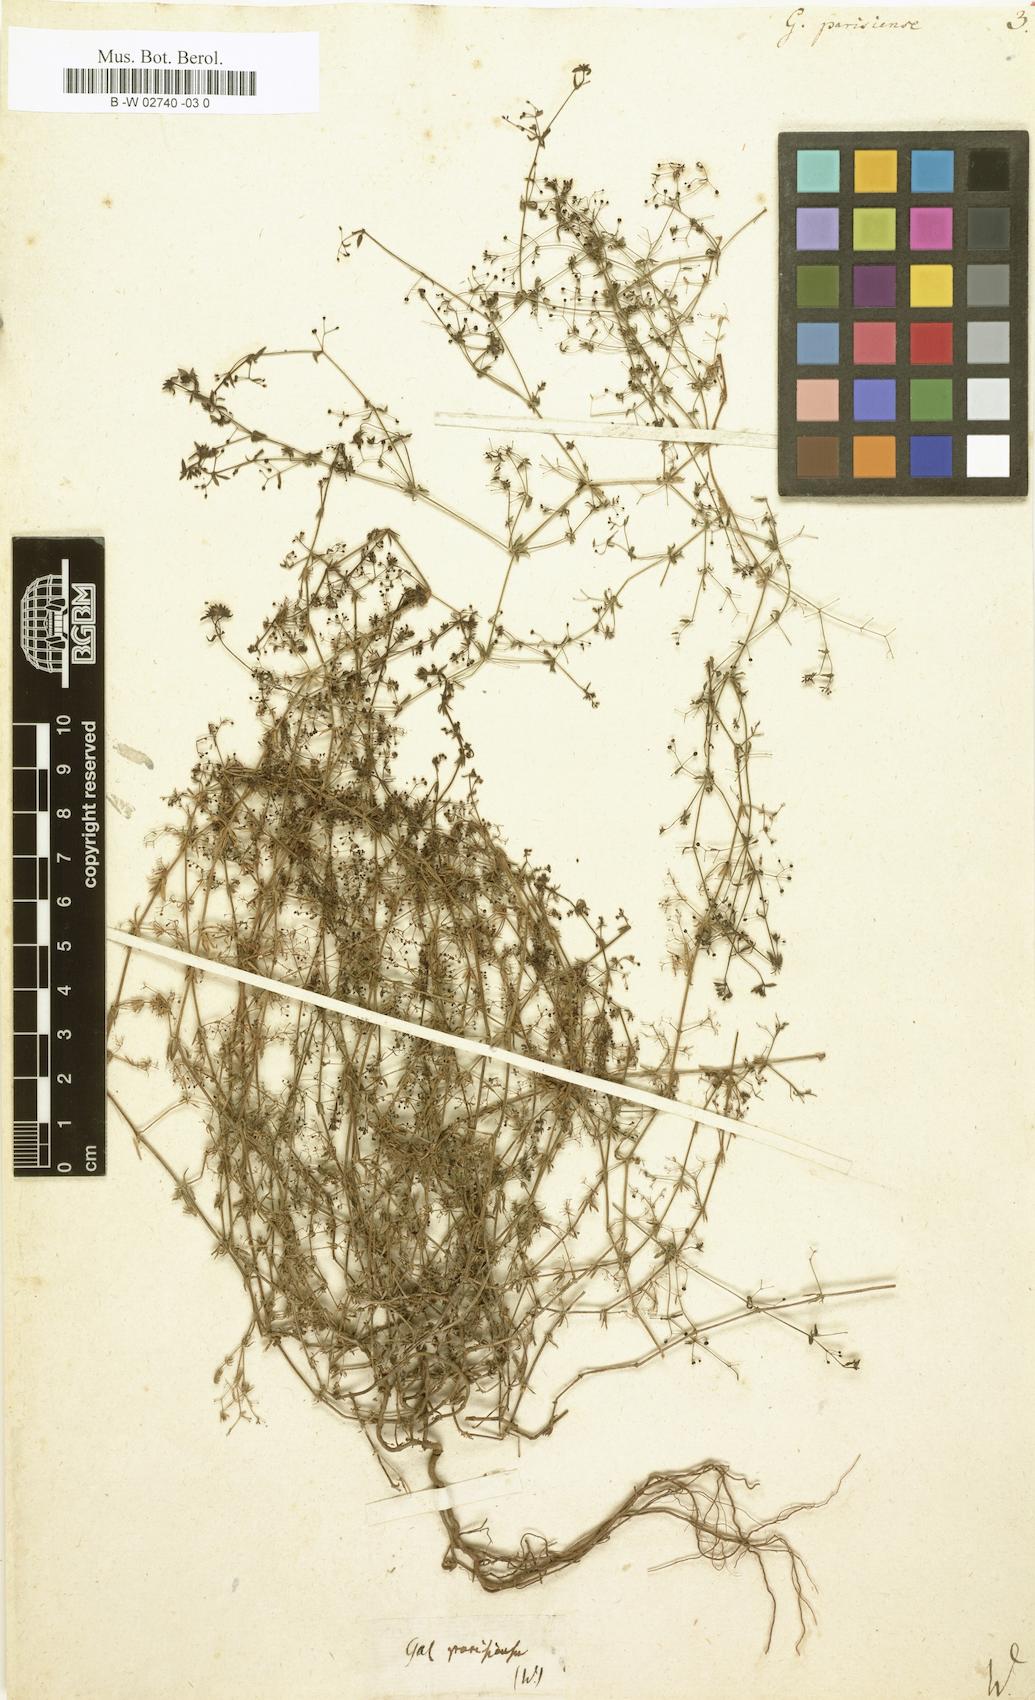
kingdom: Plantae
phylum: Tracheophyta
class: Magnoliopsida
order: Gentianales
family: Rubiaceae
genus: Galium
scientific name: Galium parisiense
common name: Wall bedstraw
